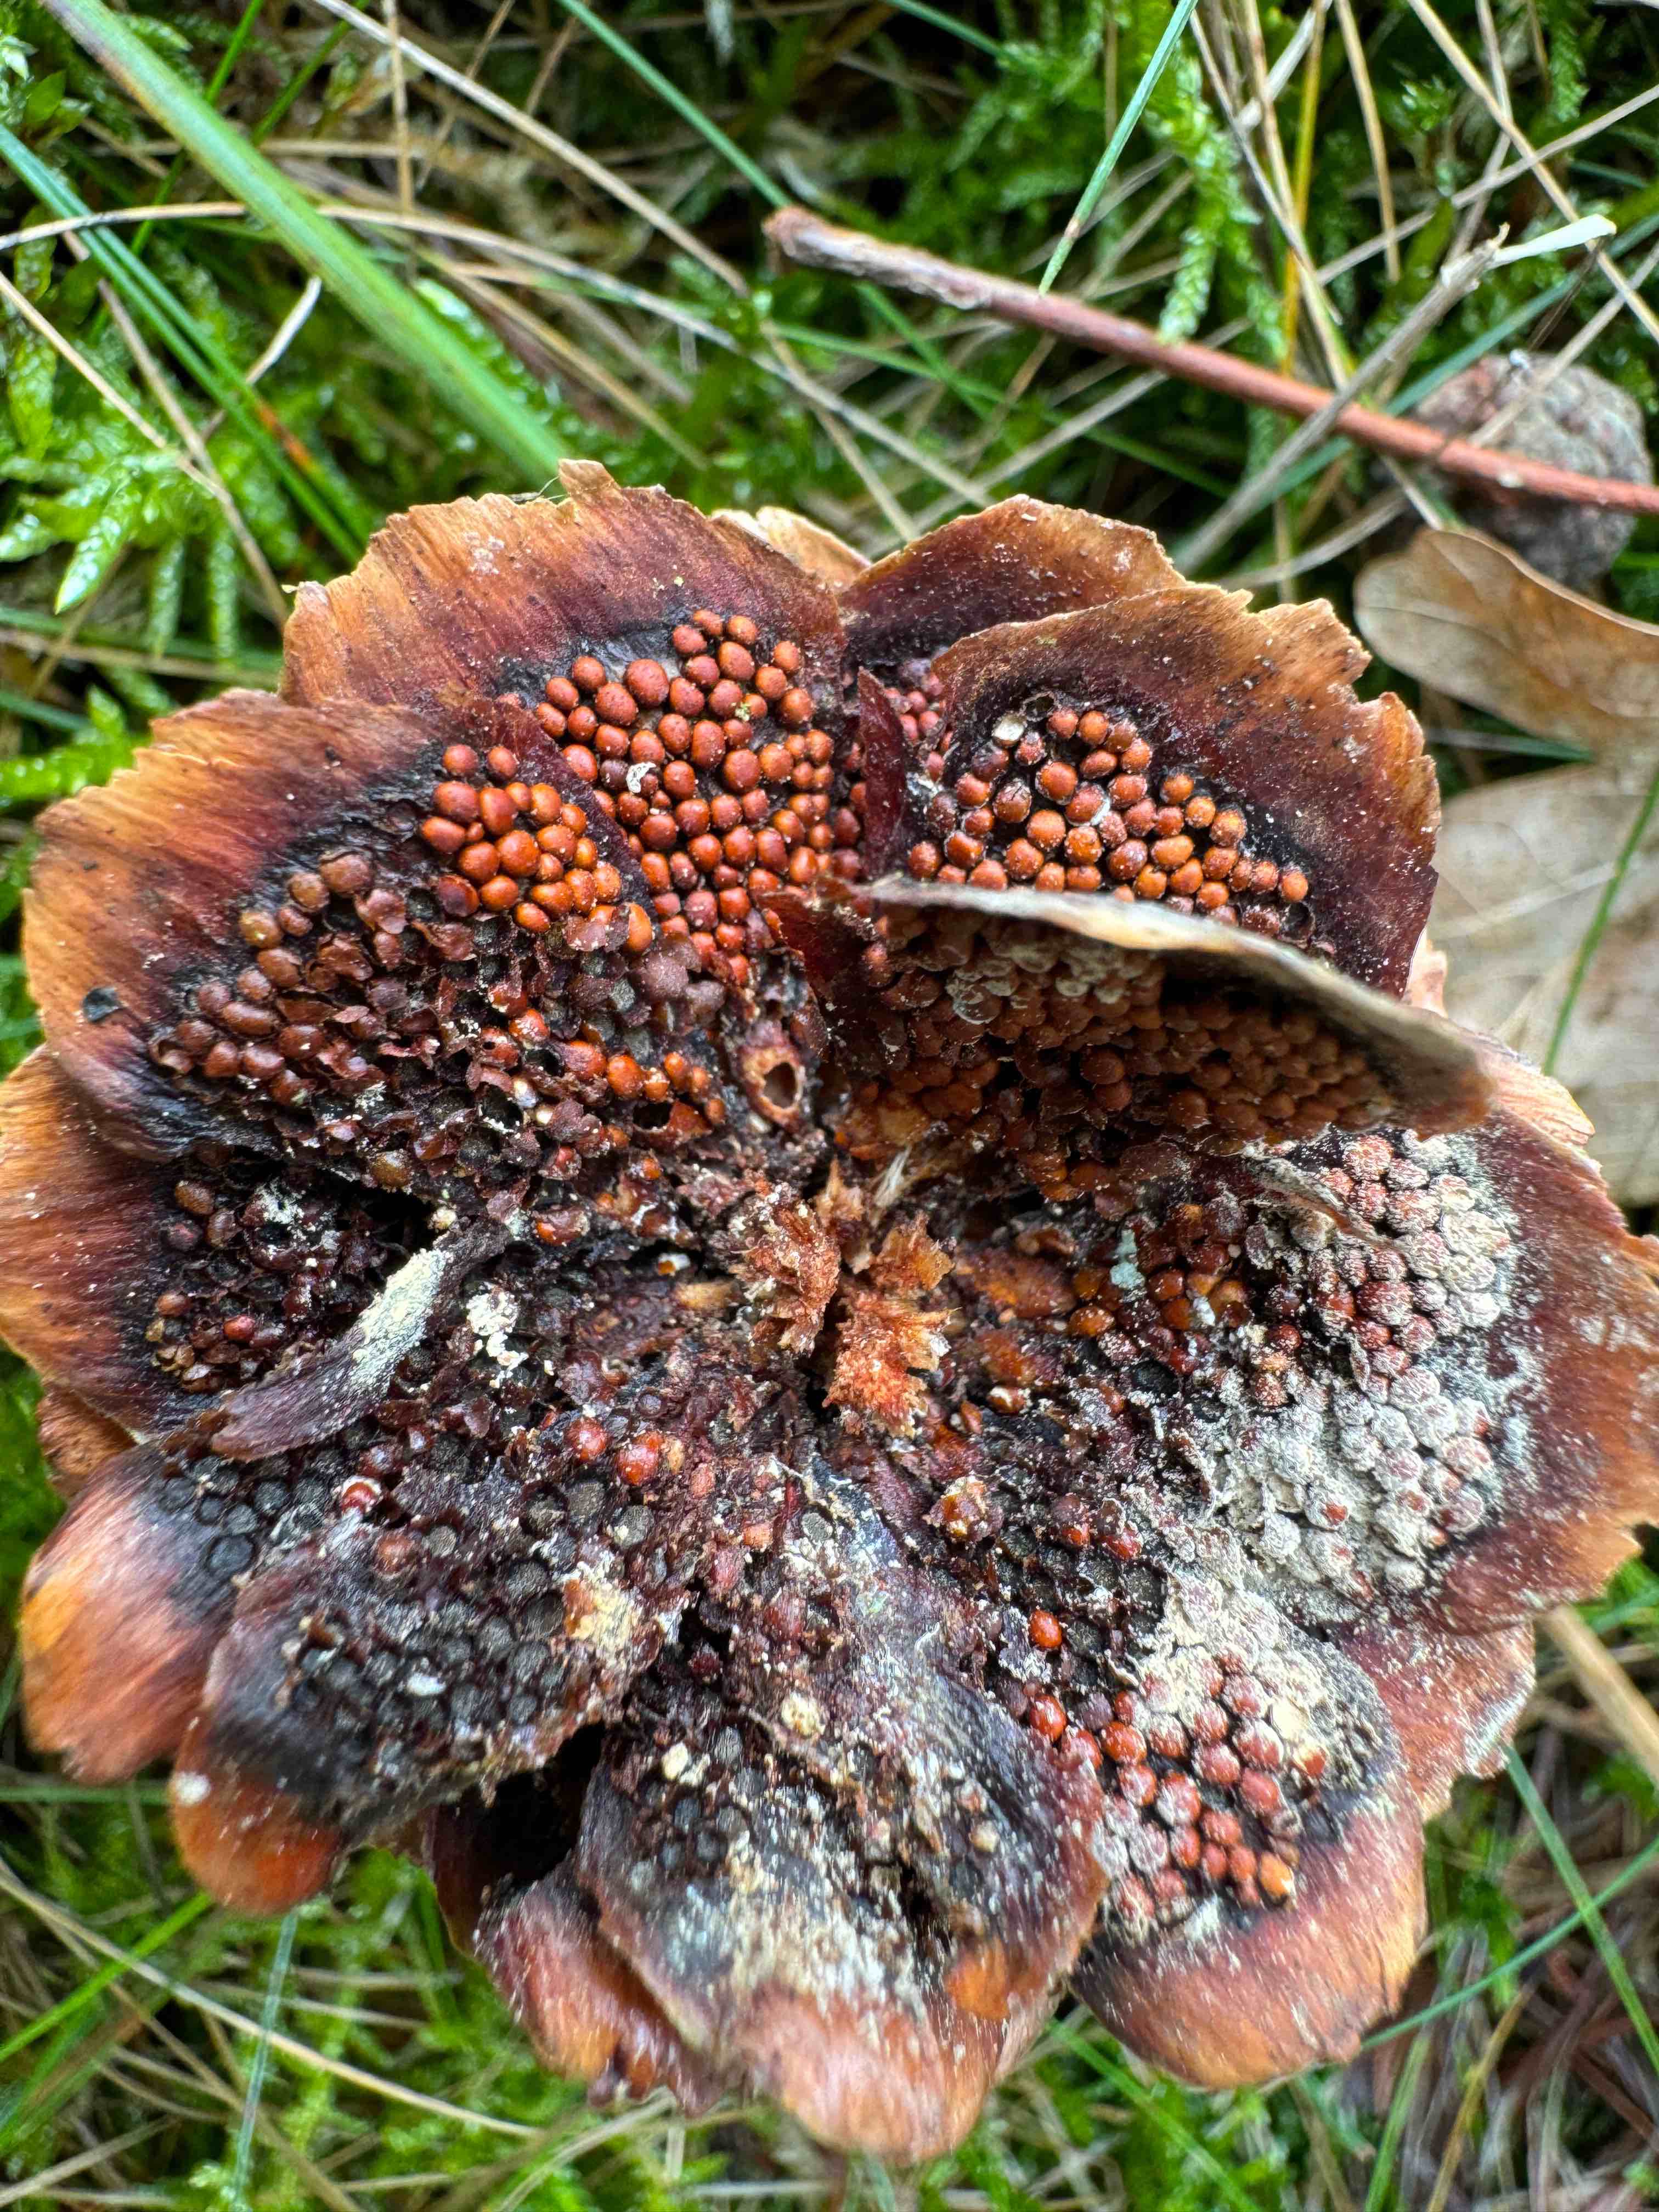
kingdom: Fungi
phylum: Basidiomycota
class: Pucciniomycetes
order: Pucciniales
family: Pucciniastraceae
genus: Thekopsora
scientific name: Thekopsora areolata
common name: grankogle-nålerust
